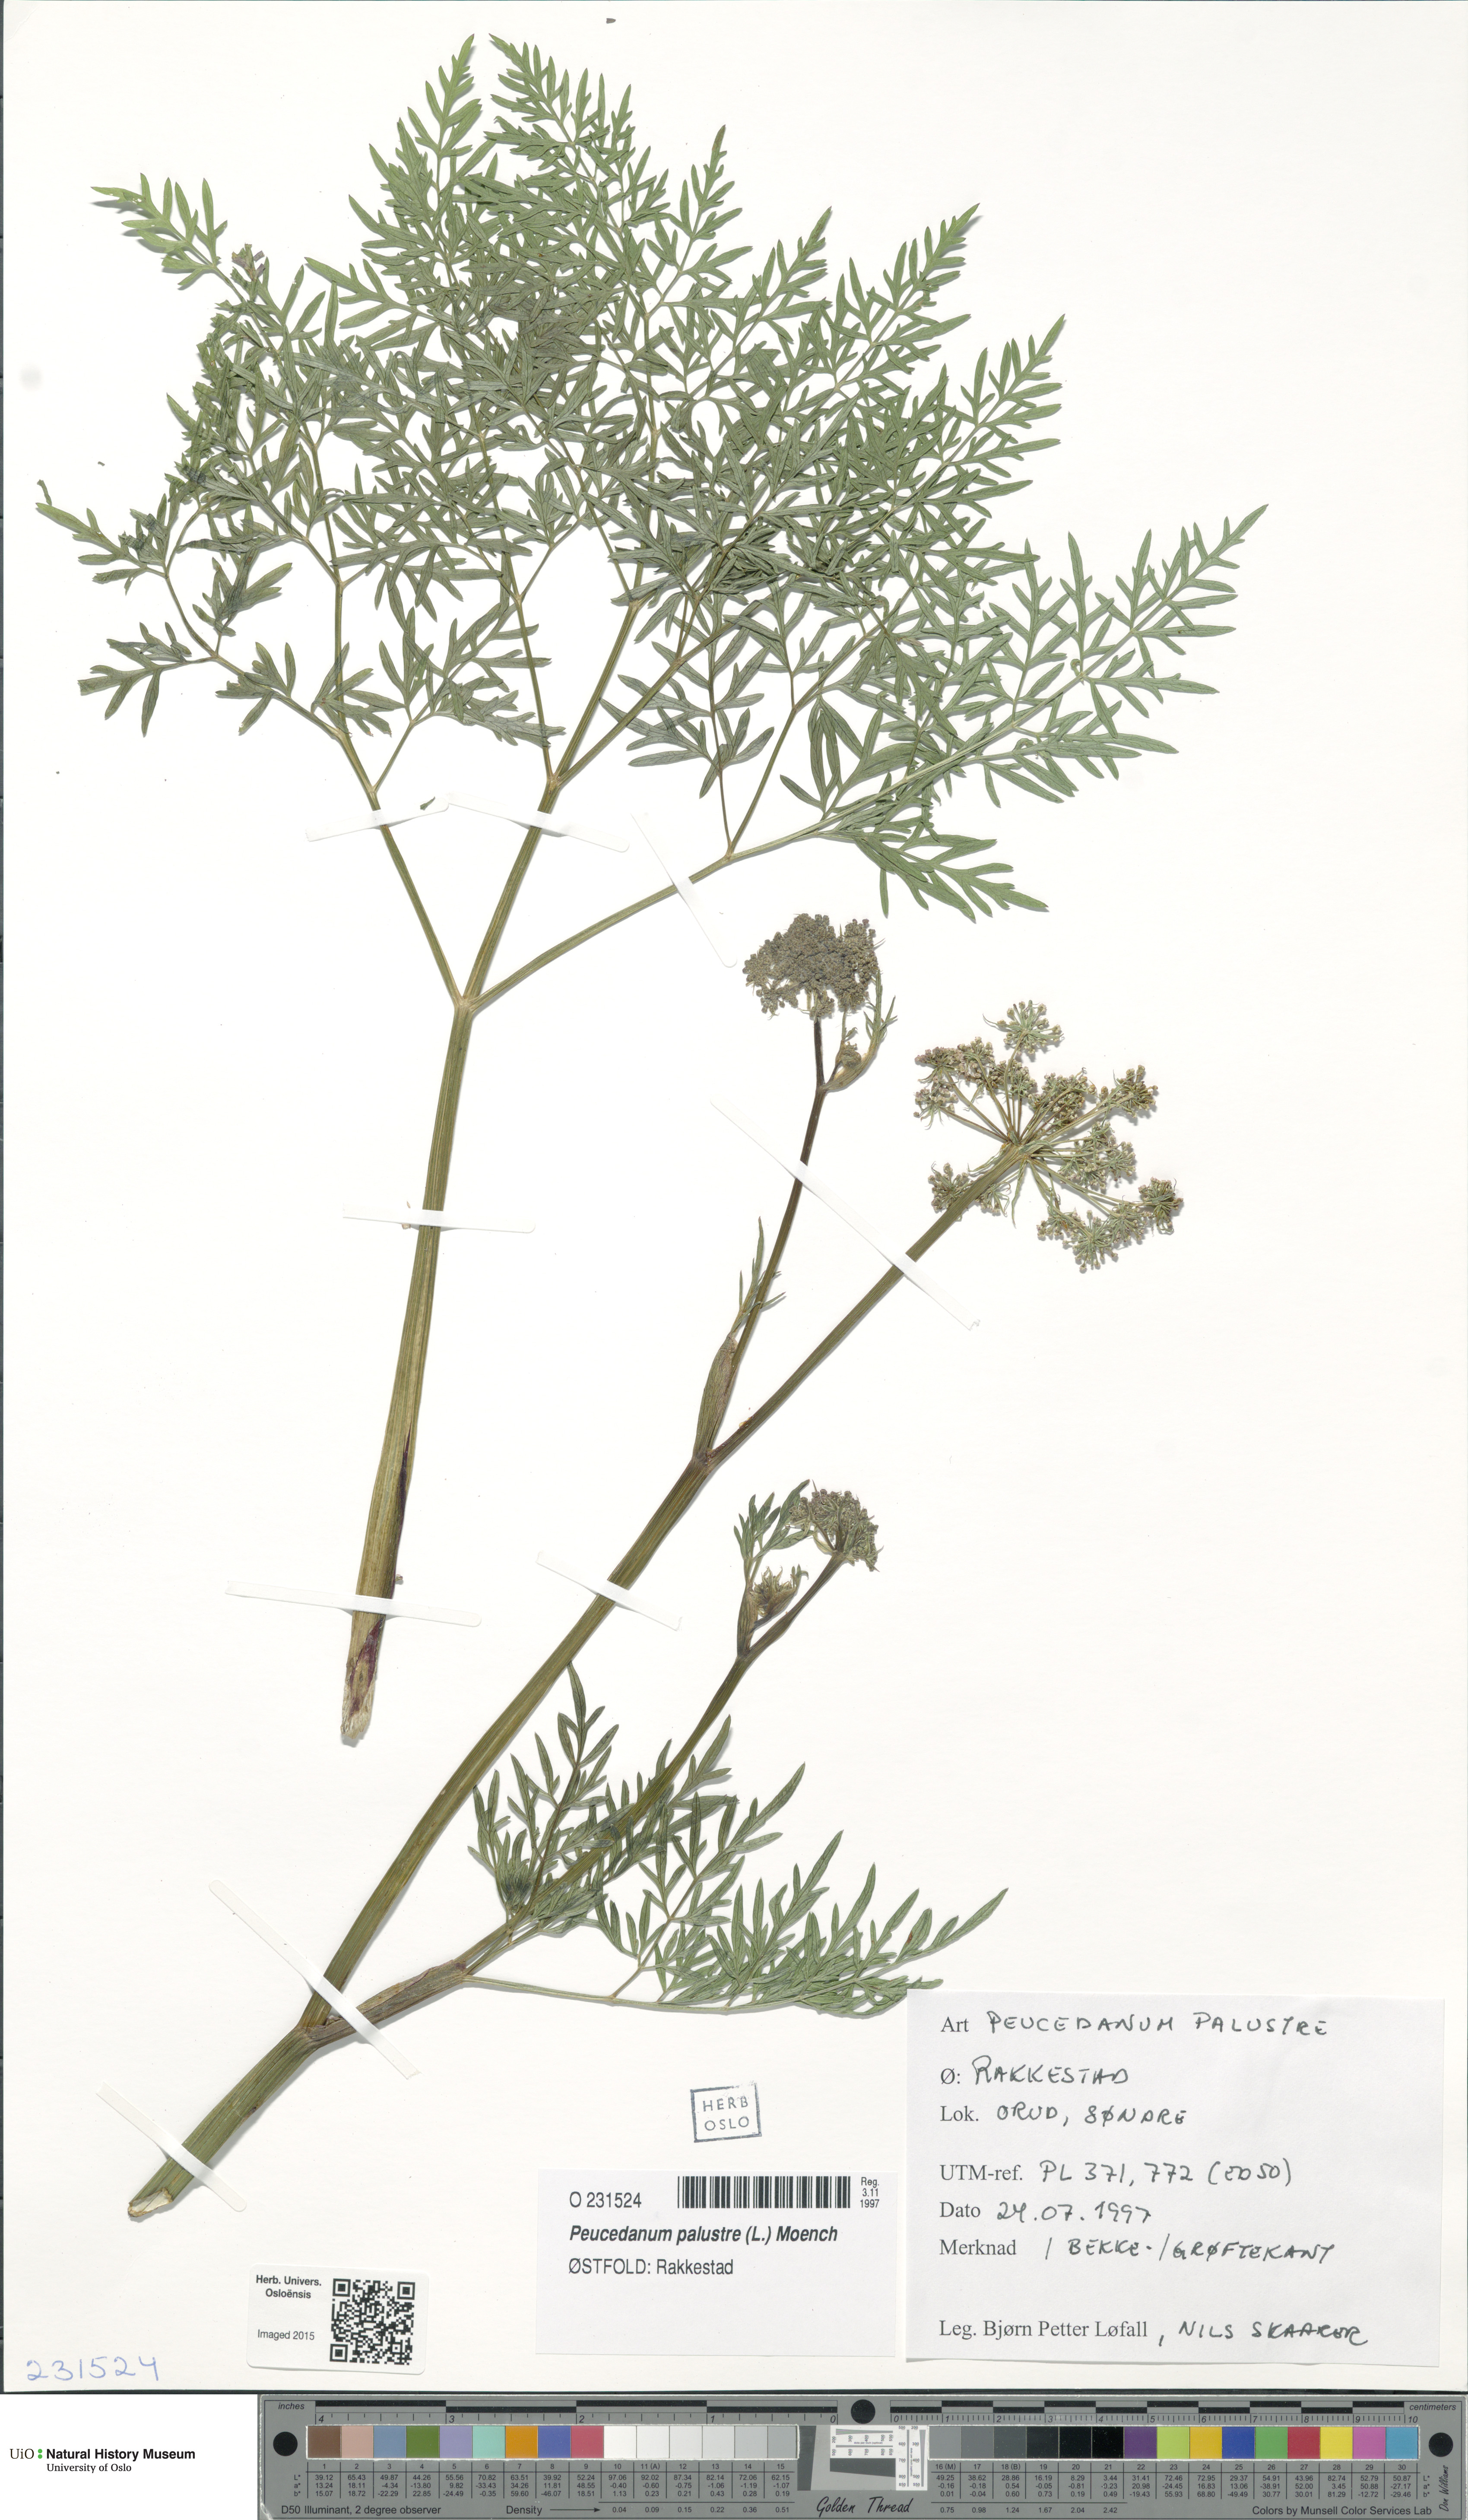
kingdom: Plantae
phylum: Tracheophyta
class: Magnoliopsida
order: Apiales
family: Apiaceae
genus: Thysselinum
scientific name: Thysselinum palustre
